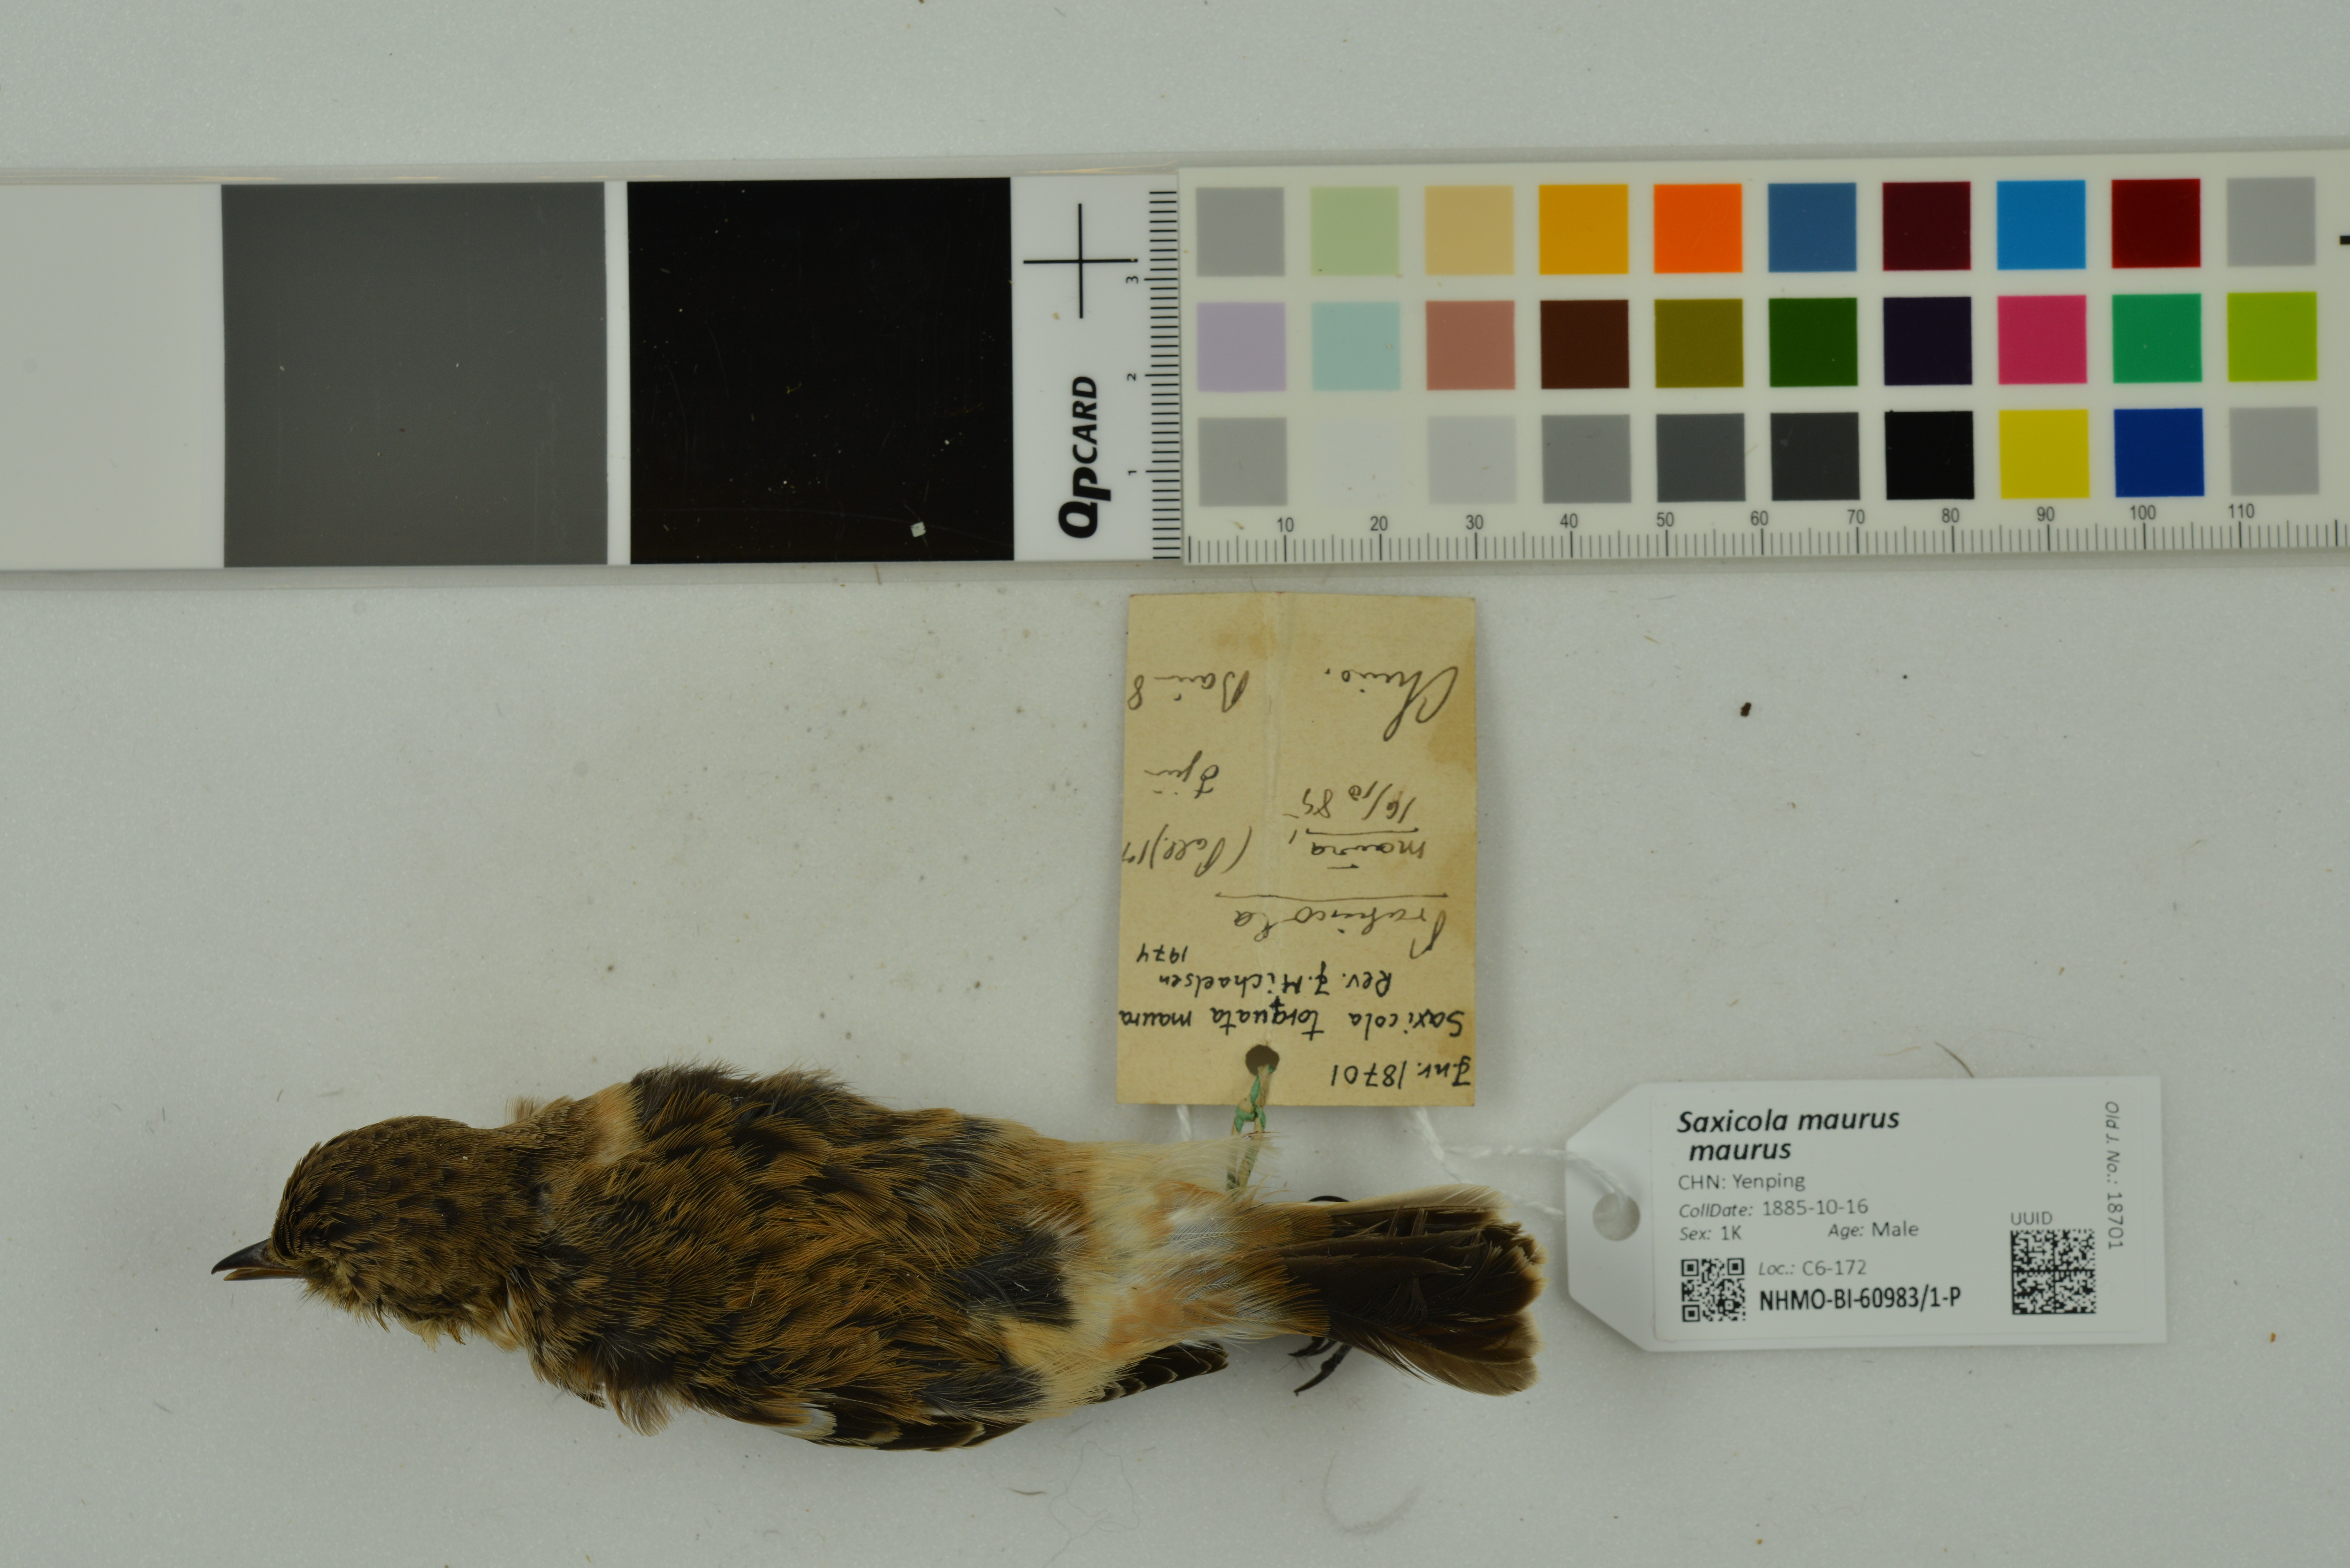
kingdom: Animalia
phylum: Chordata
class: Aves
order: Passeriformes
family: Muscicapidae
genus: Saxicola
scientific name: Saxicola maurus
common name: Siberian stonechat
